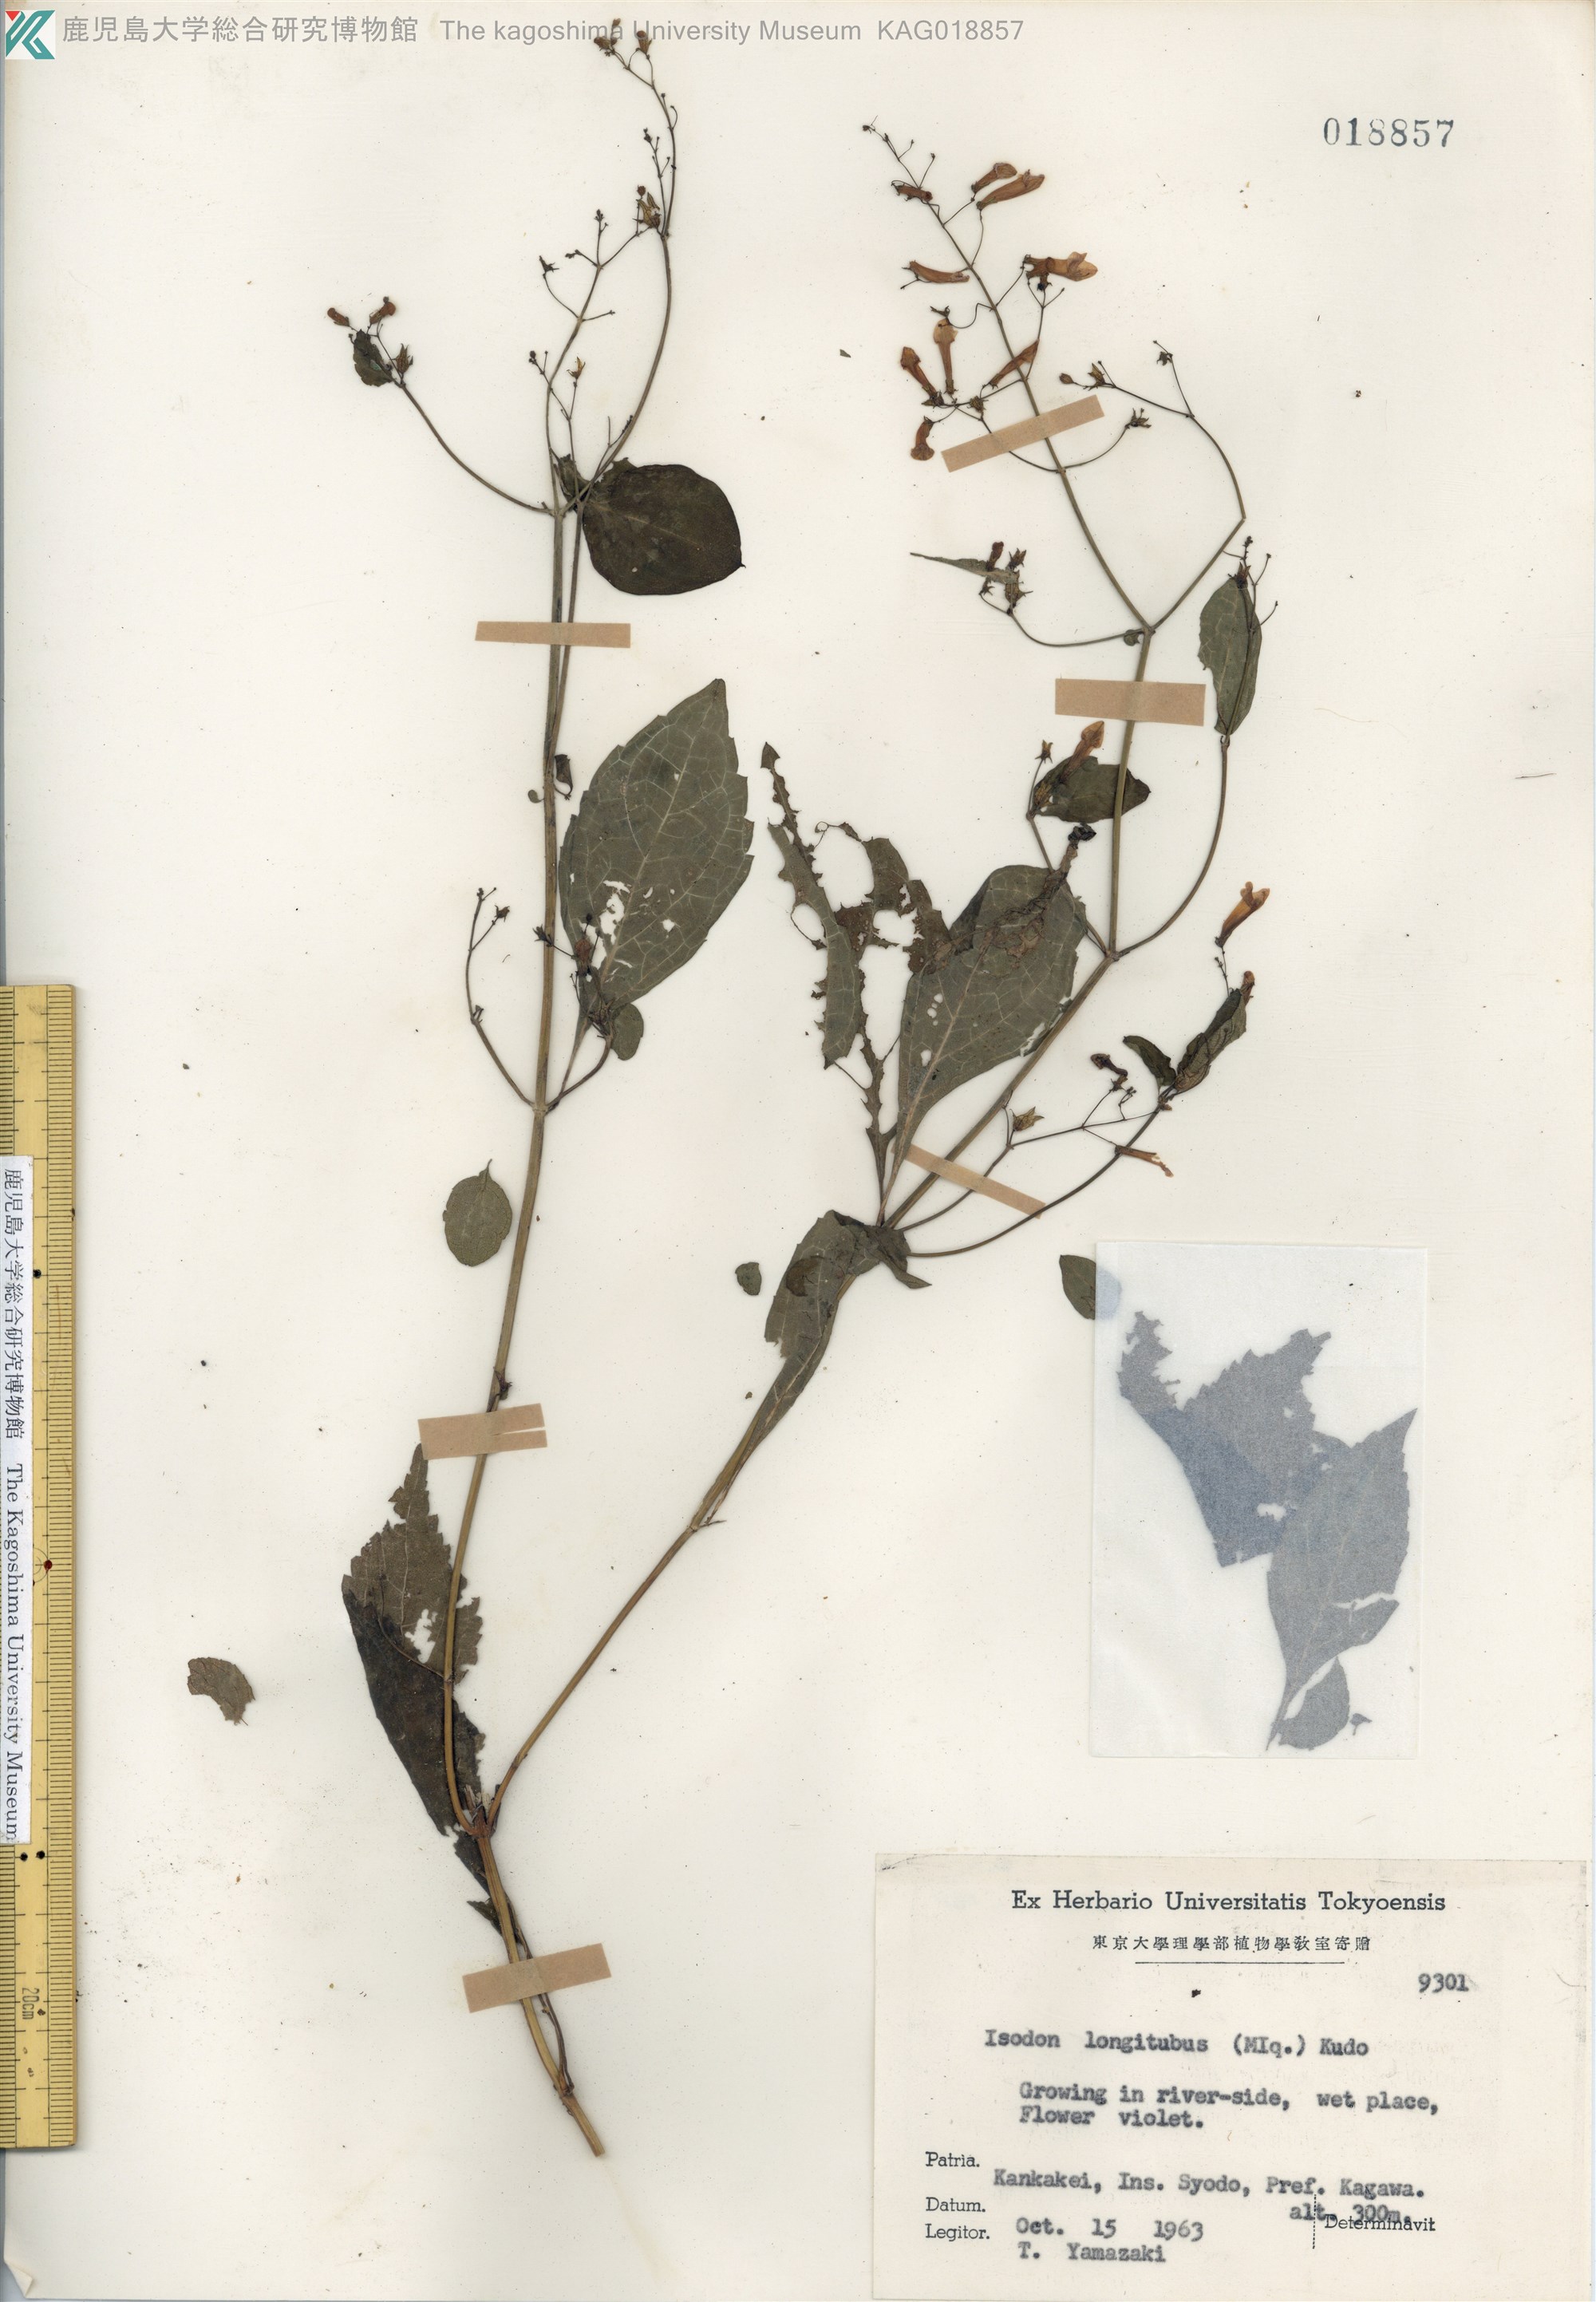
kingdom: Plantae
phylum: Tracheophyta
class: Magnoliopsida
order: Lamiales
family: Lamiaceae
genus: Isodon
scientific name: Isodon longitubus
